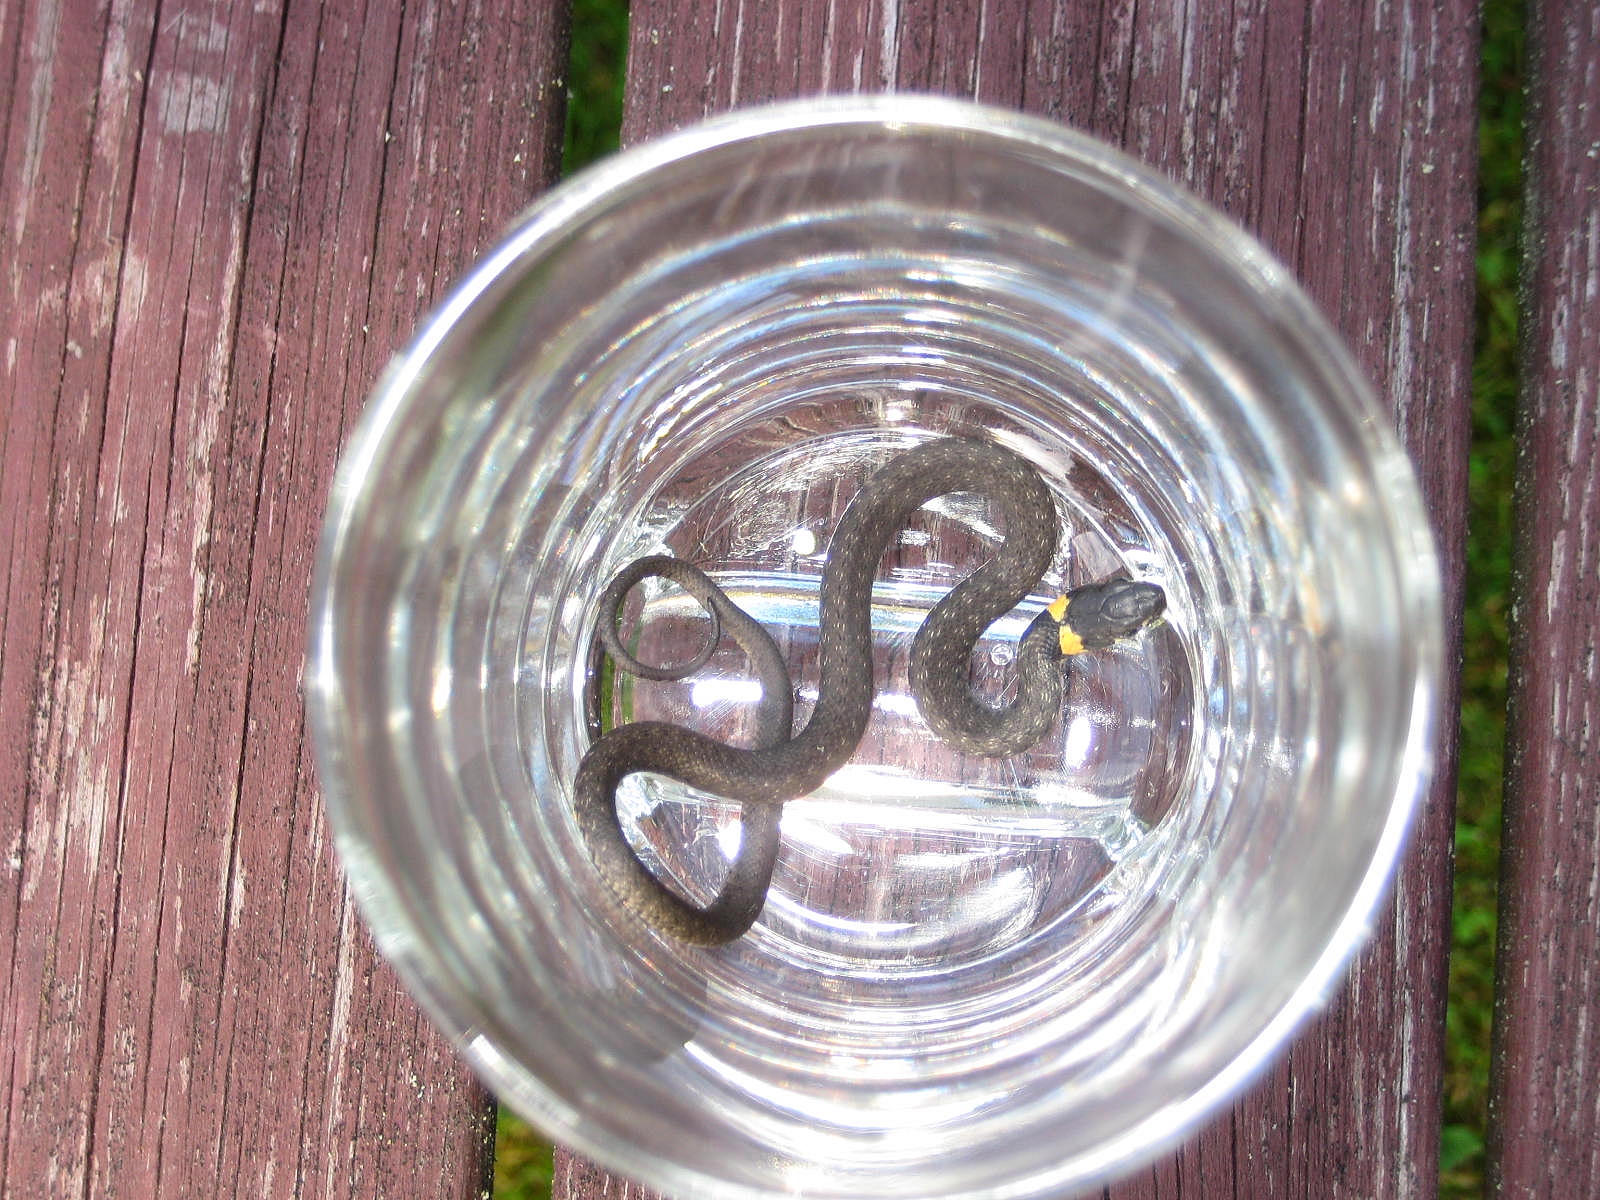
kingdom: Animalia
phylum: Chordata
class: Squamata
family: Colubridae
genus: Natrix
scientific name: Natrix natrix
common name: Grass snake
